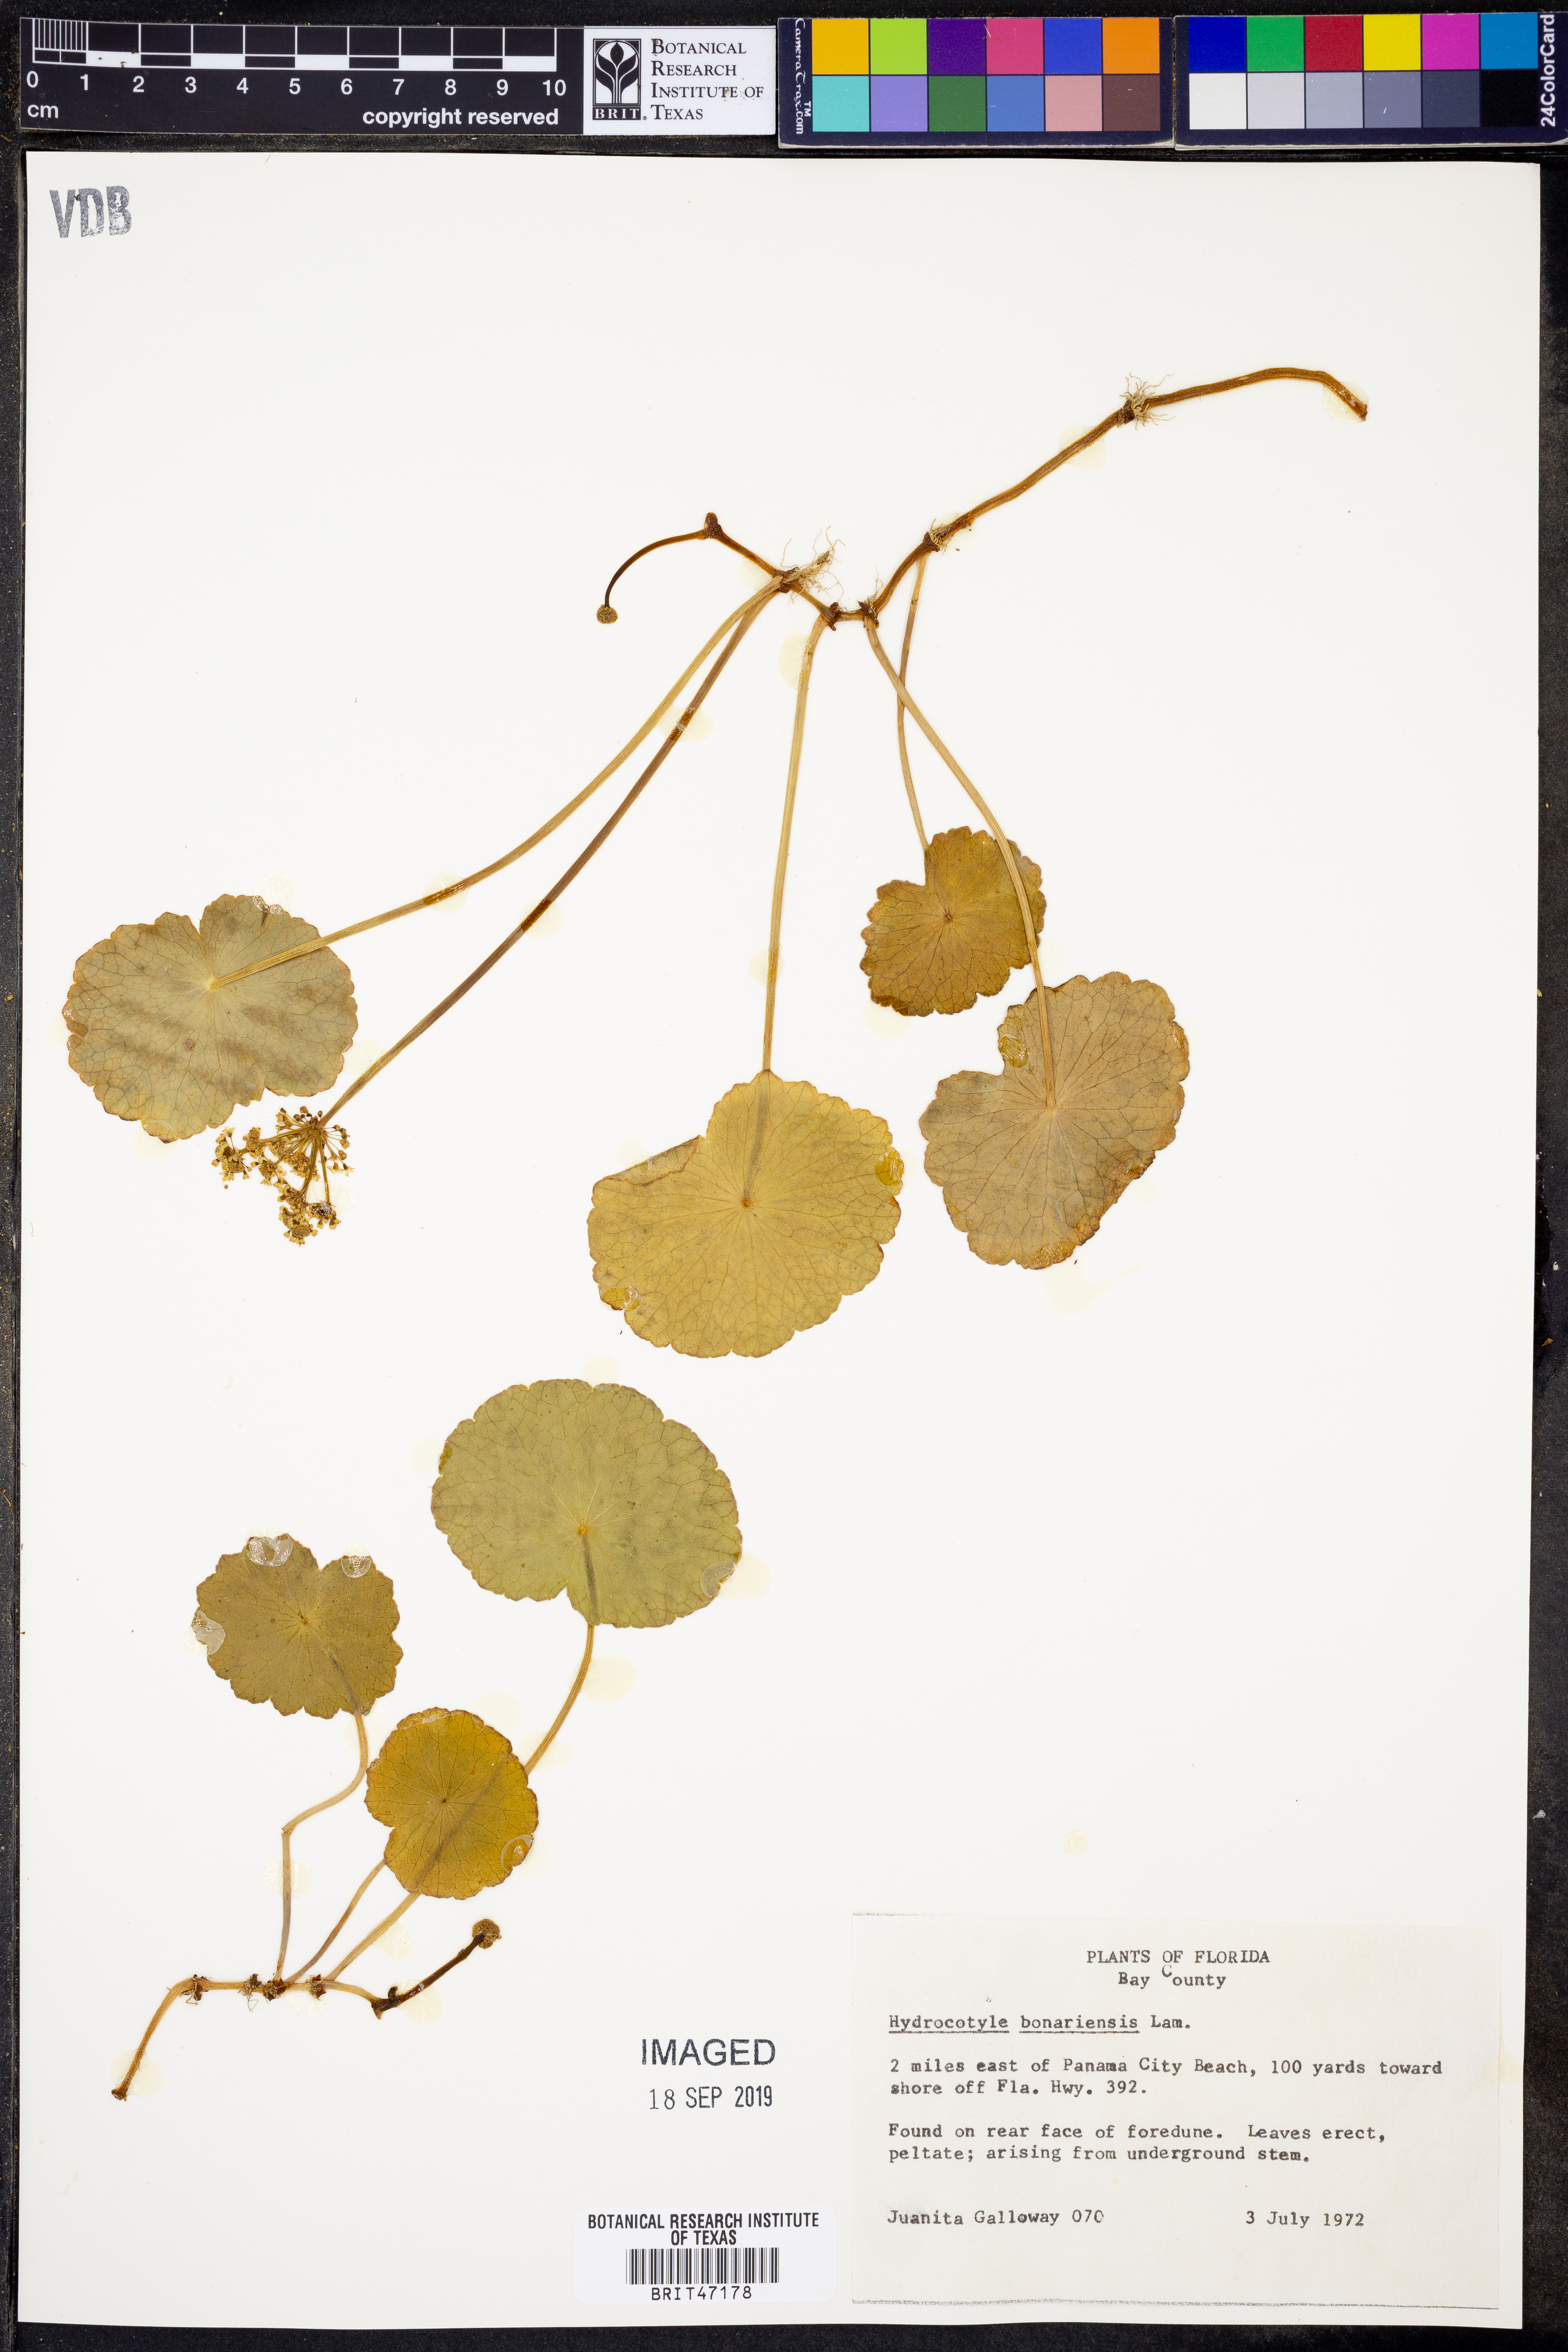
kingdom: Plantae
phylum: Tracheophyta
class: Magnoliopsida
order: Apiales
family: Araliaceae
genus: Hydrocotyle
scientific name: Hydrocotyle bonariensis
